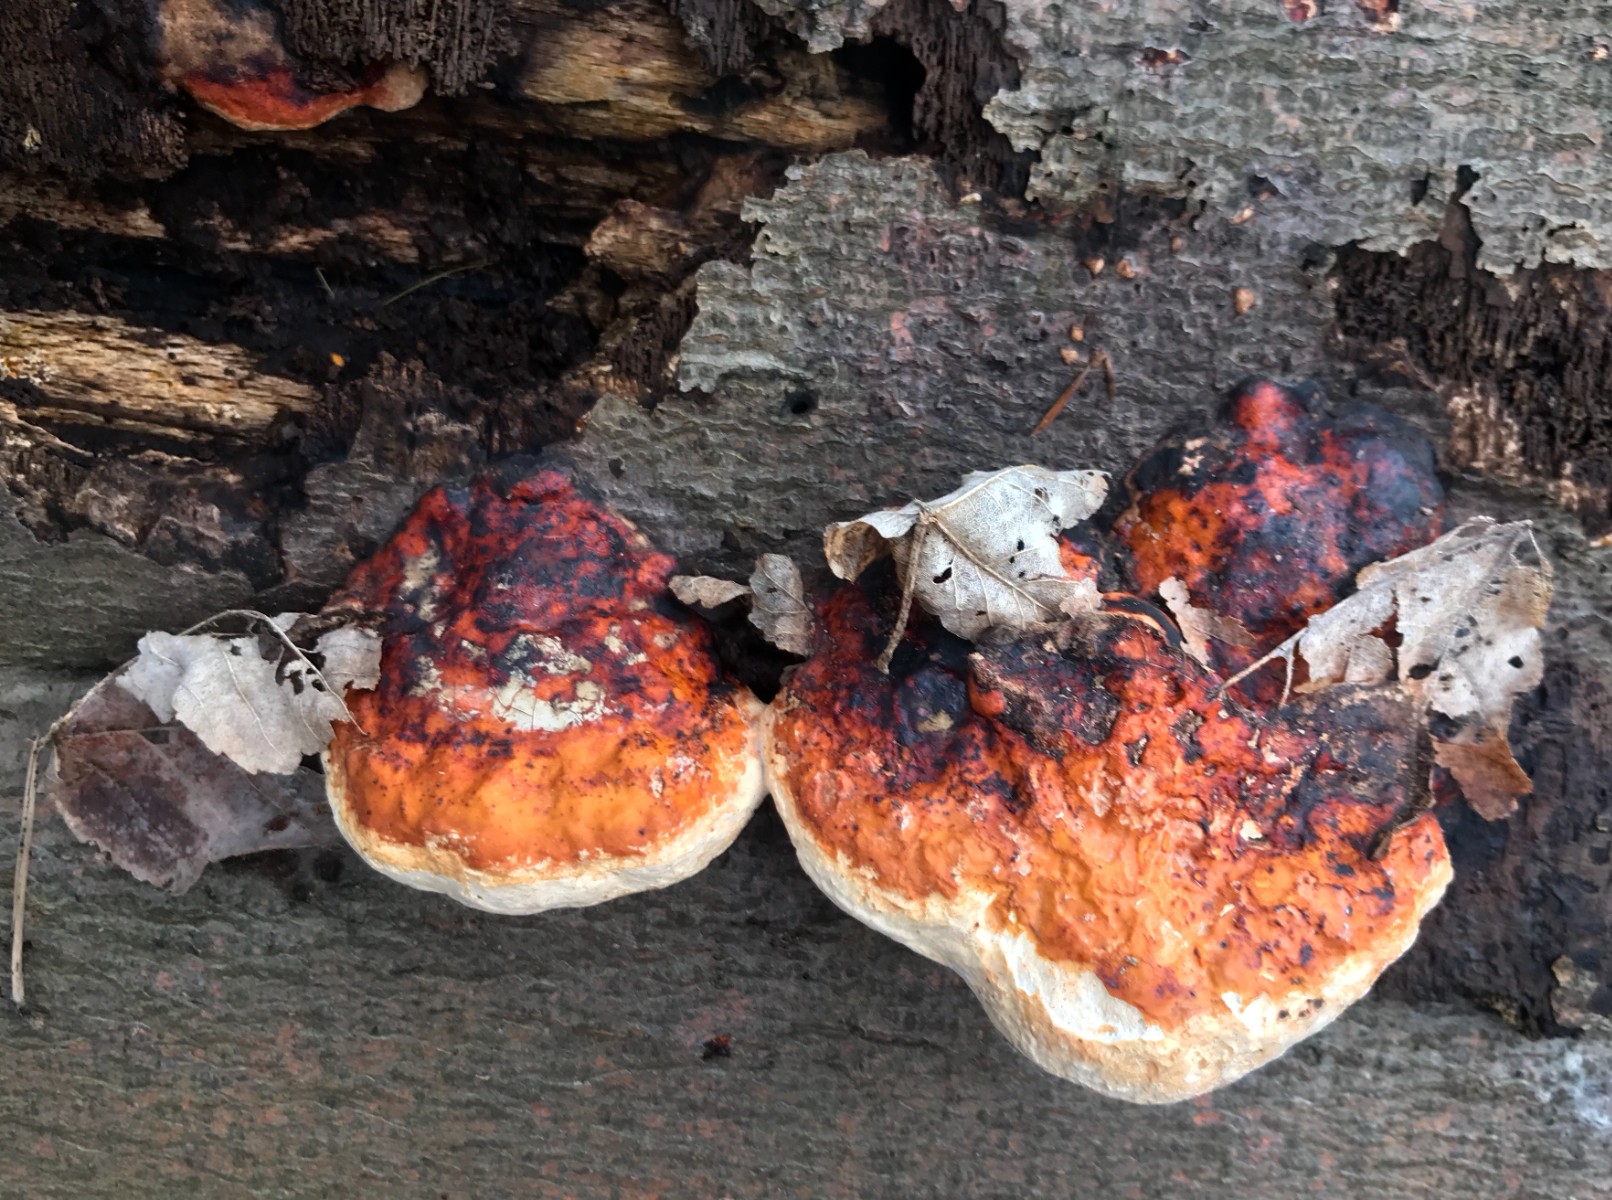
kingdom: Fungi
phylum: Basidiomycota
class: Agaricomycetes
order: Polyporales
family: Fomitopsidaceae
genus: Fomitopsis
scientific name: Fomitopsis pinicola
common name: randbæltet hovporesvamp
